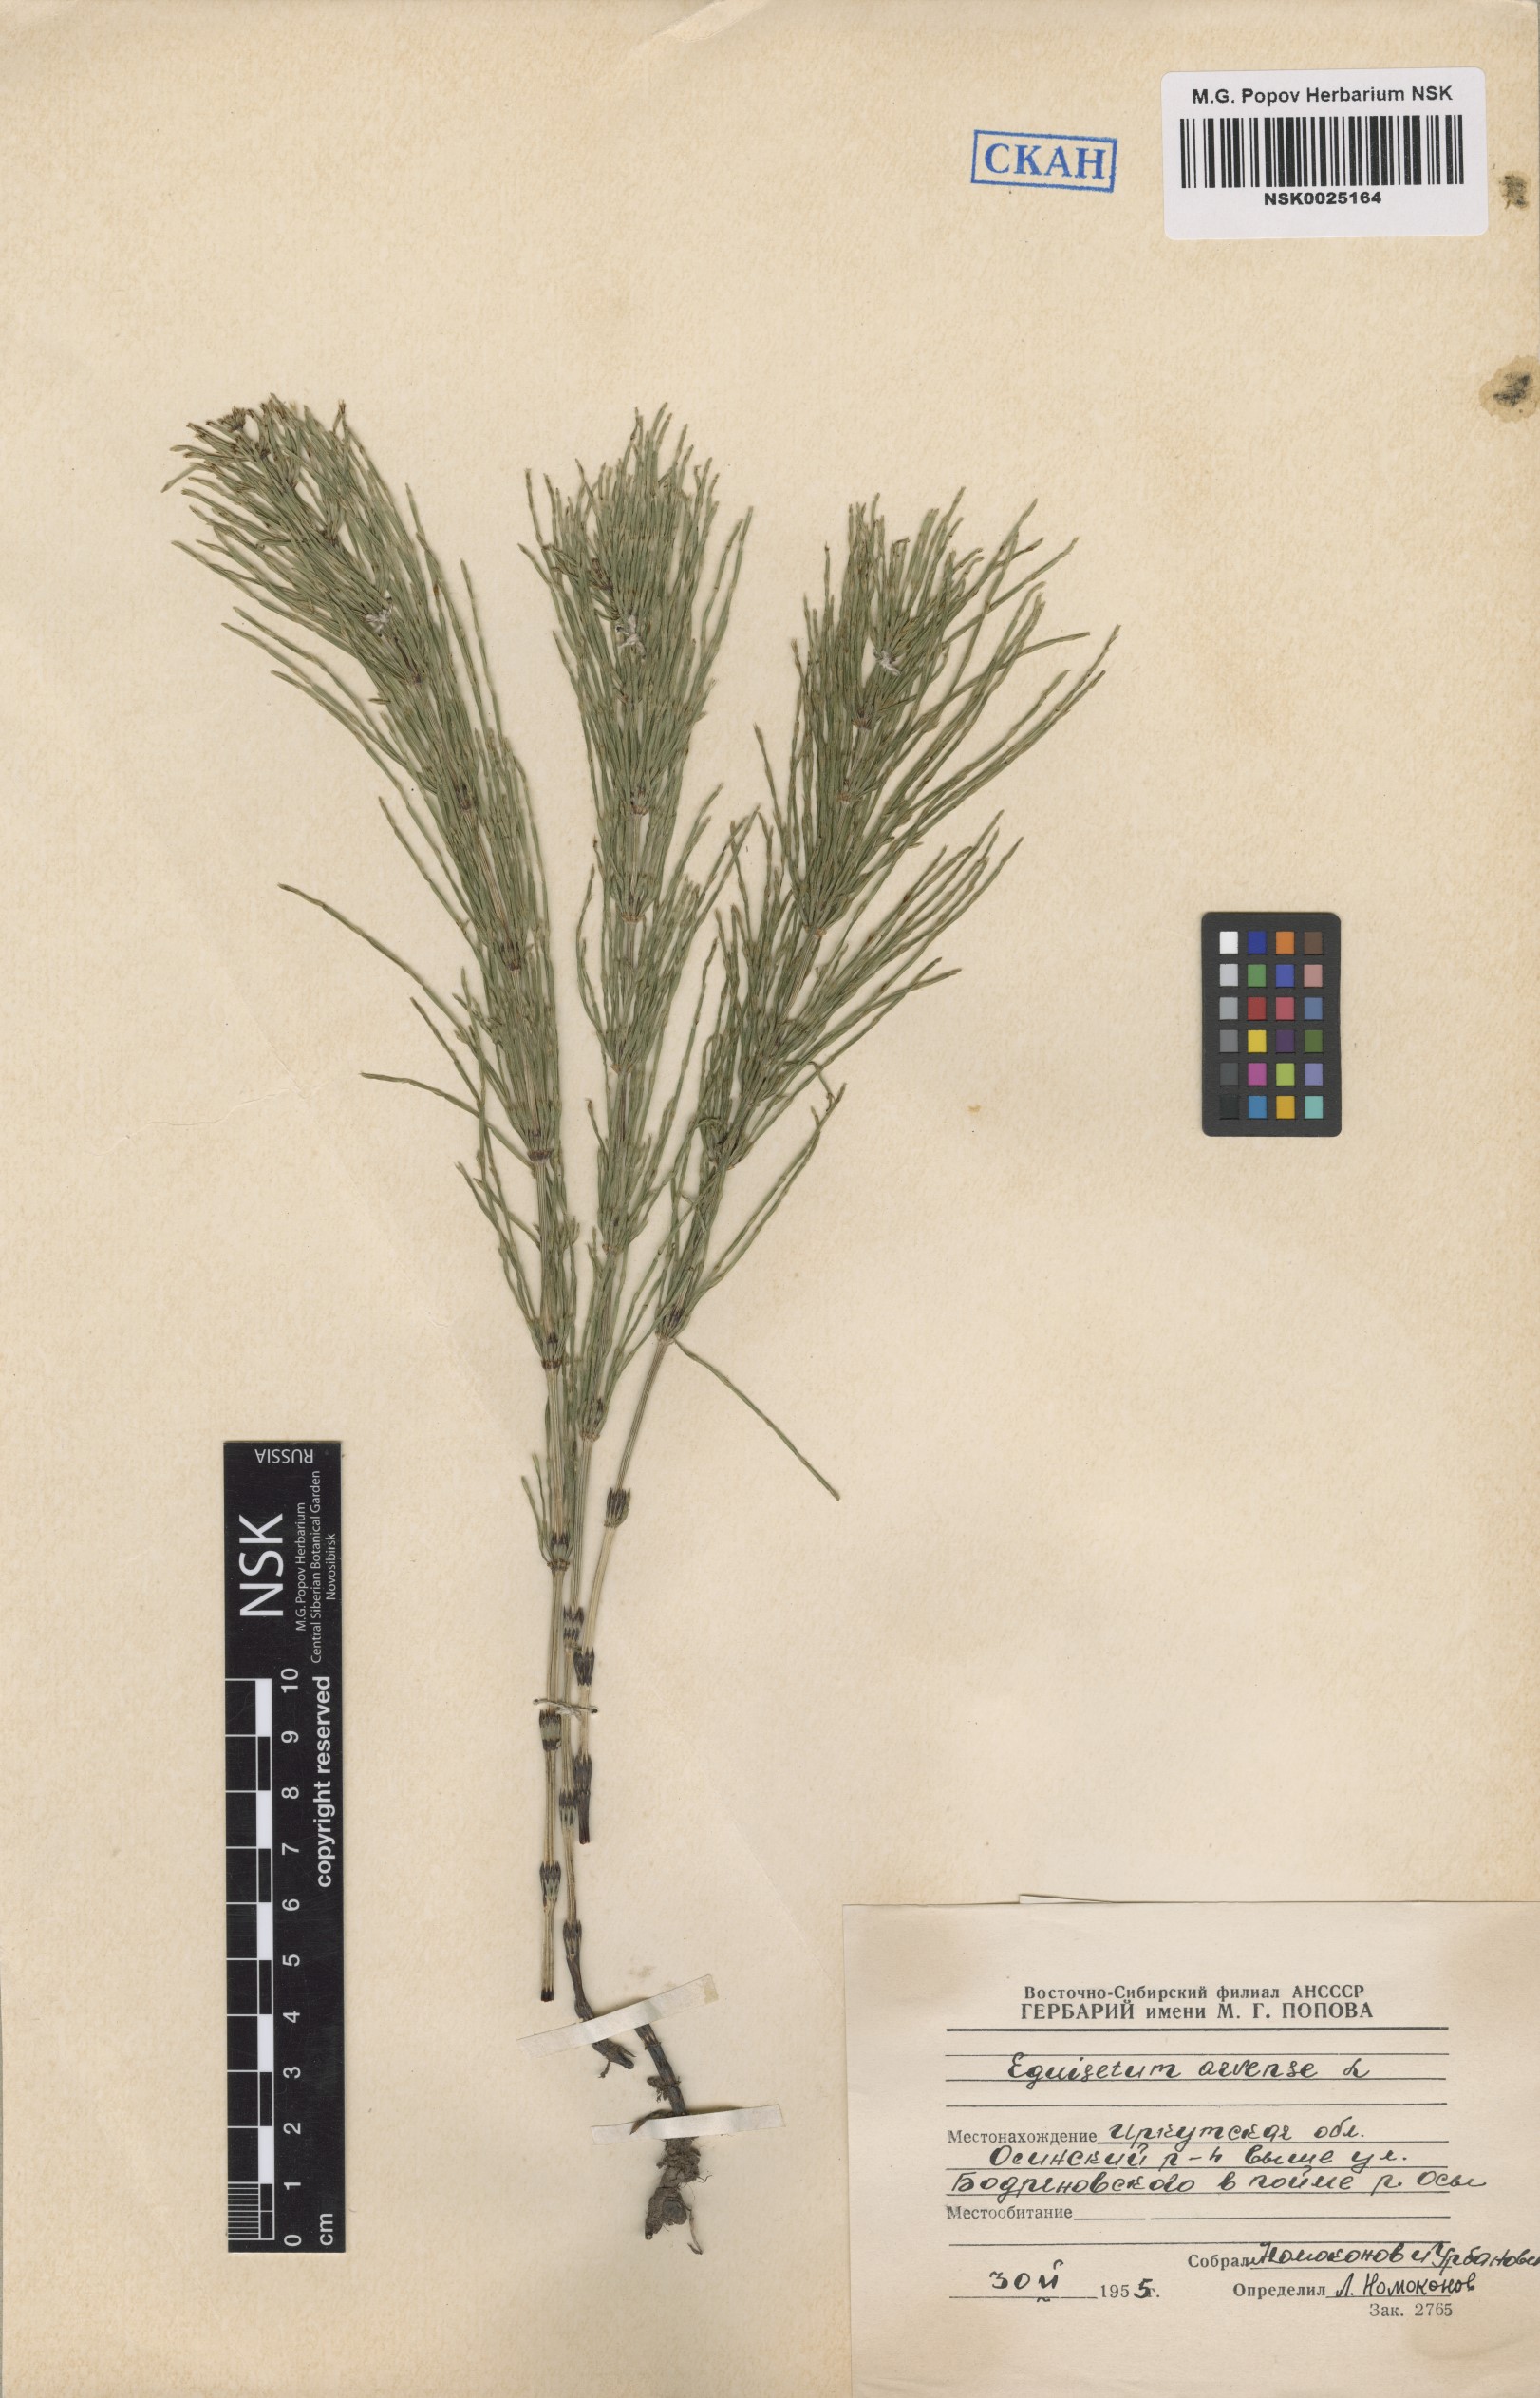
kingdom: Plantae
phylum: Tracheophyta
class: Polypodiopsida
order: Equisetales
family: Equisetaceae
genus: Equisetum
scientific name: Equisetum arvense
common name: Field horsetail
